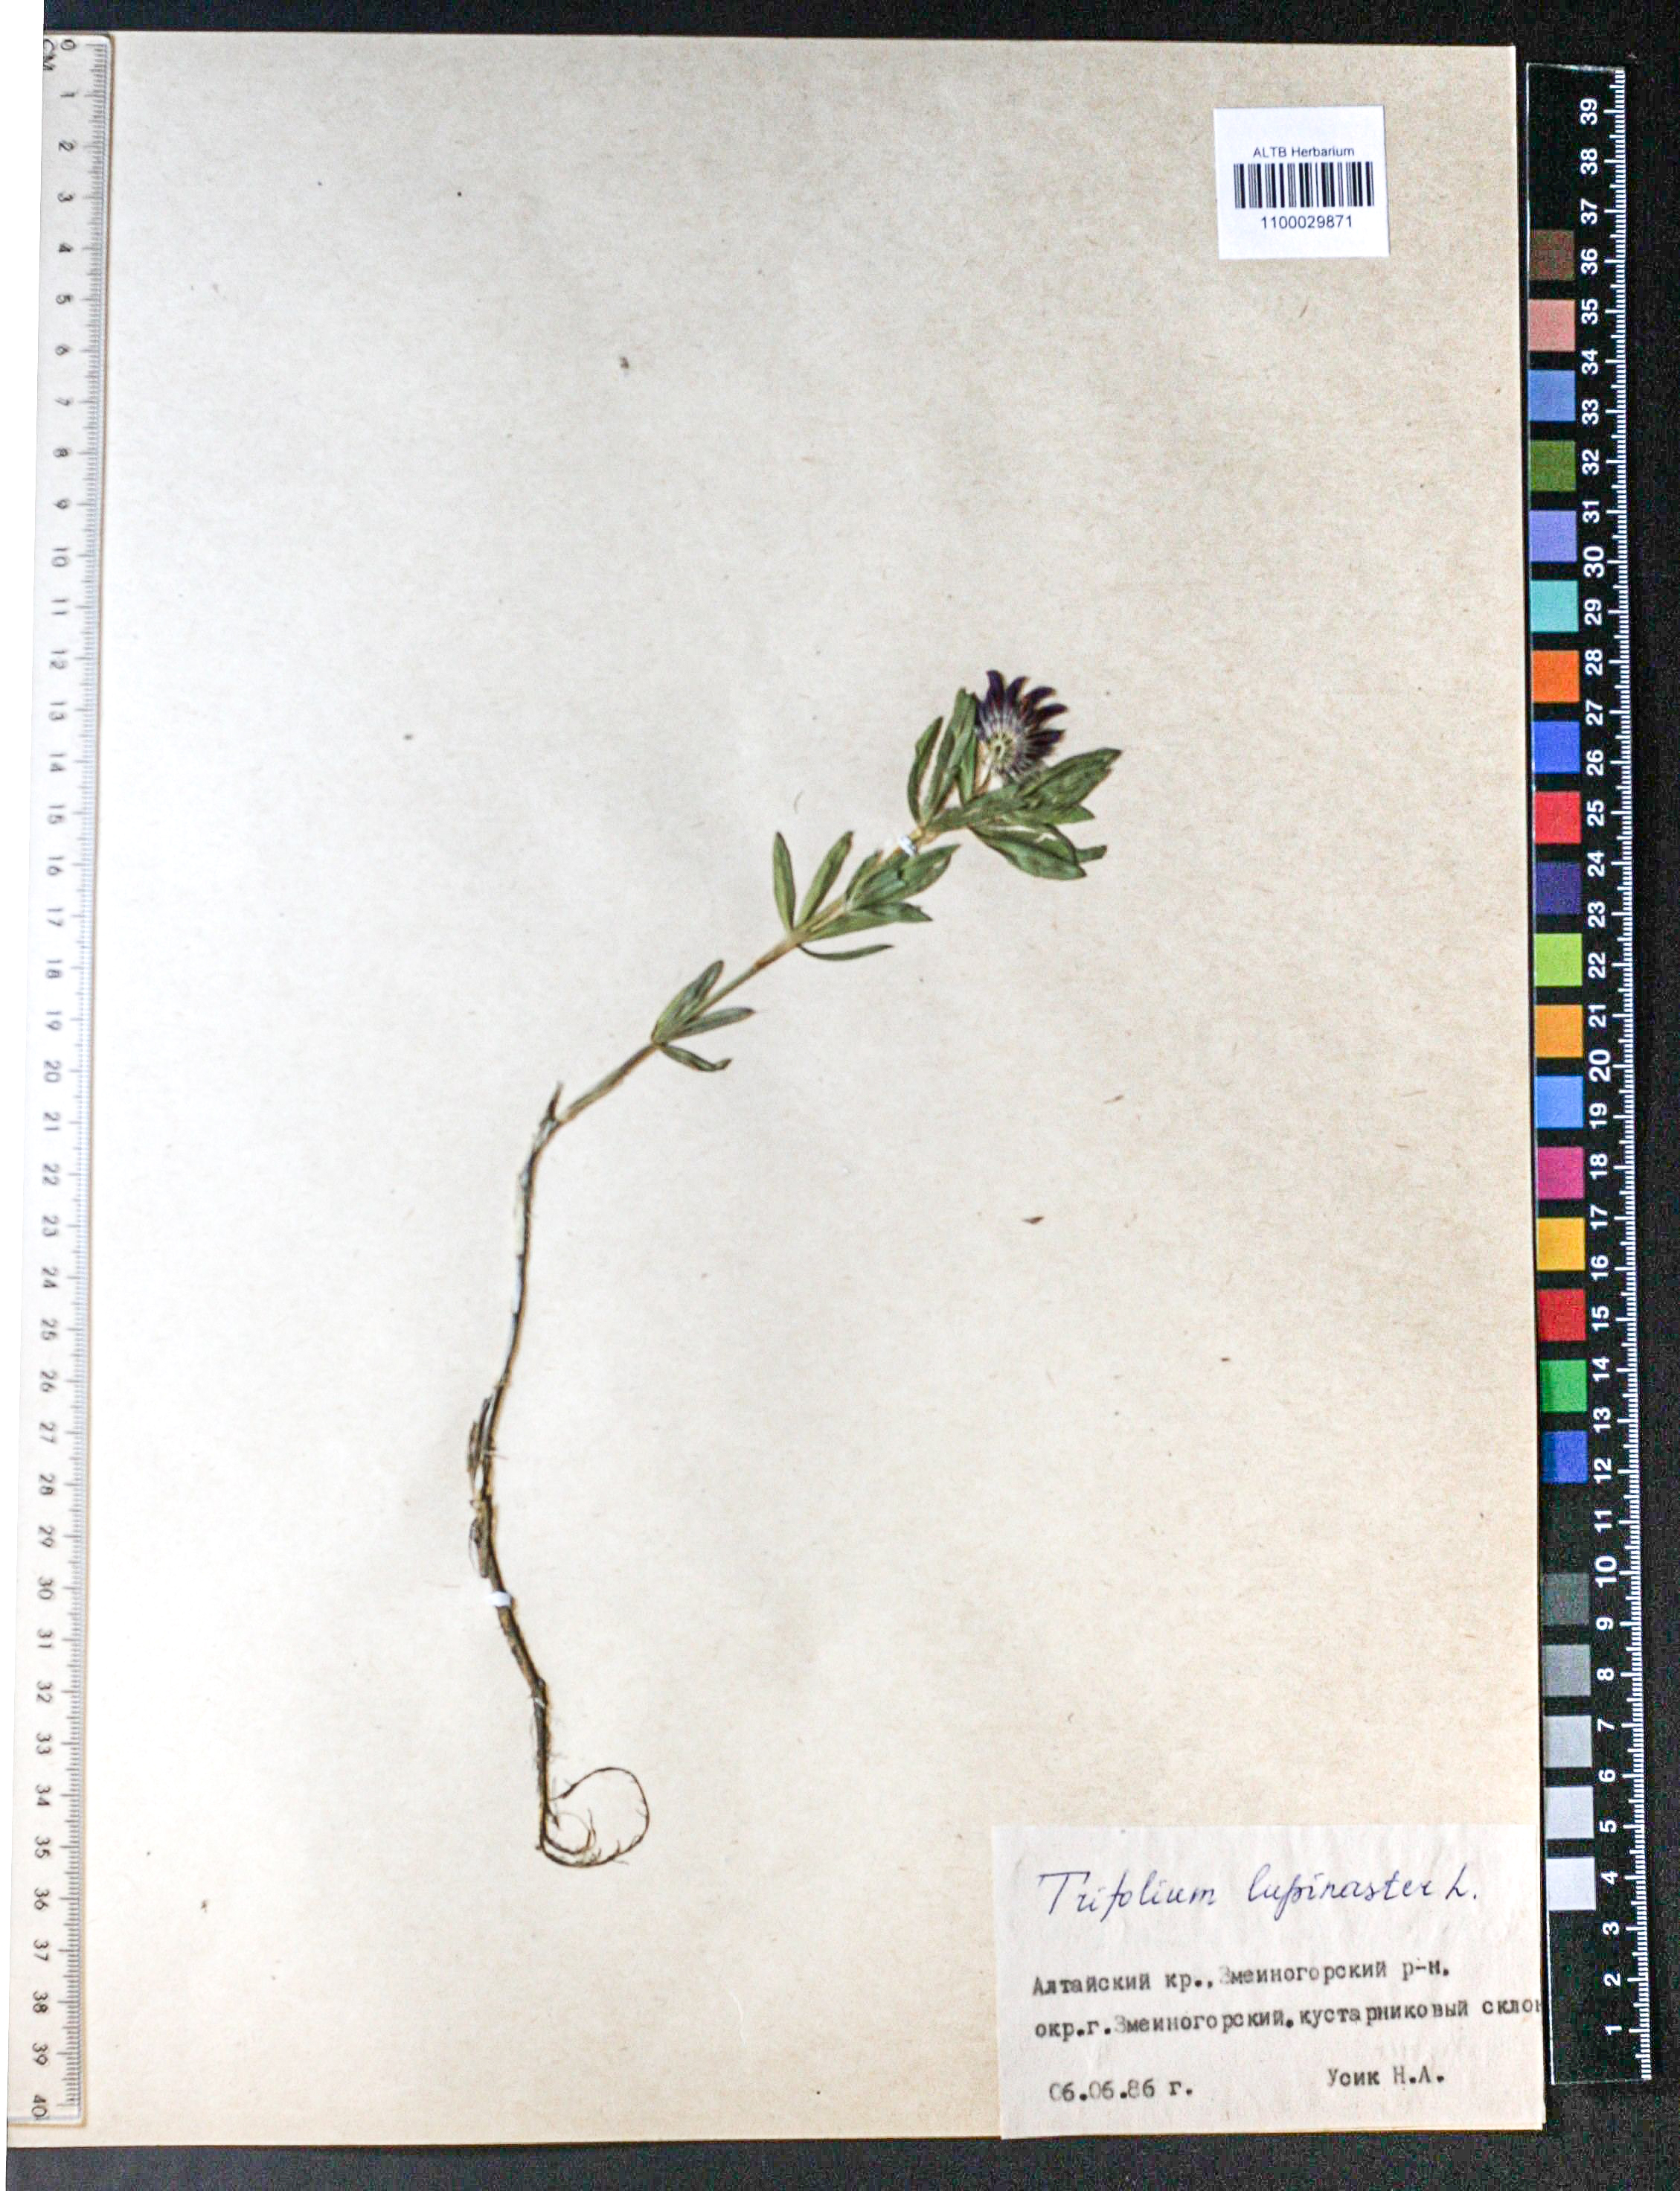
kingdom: Plantae
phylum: Tracheophyta
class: Magnoliopsida
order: Fabales
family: Fabaceae
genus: Trifolium
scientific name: Trifolium lupinaster
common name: Lupine clover
